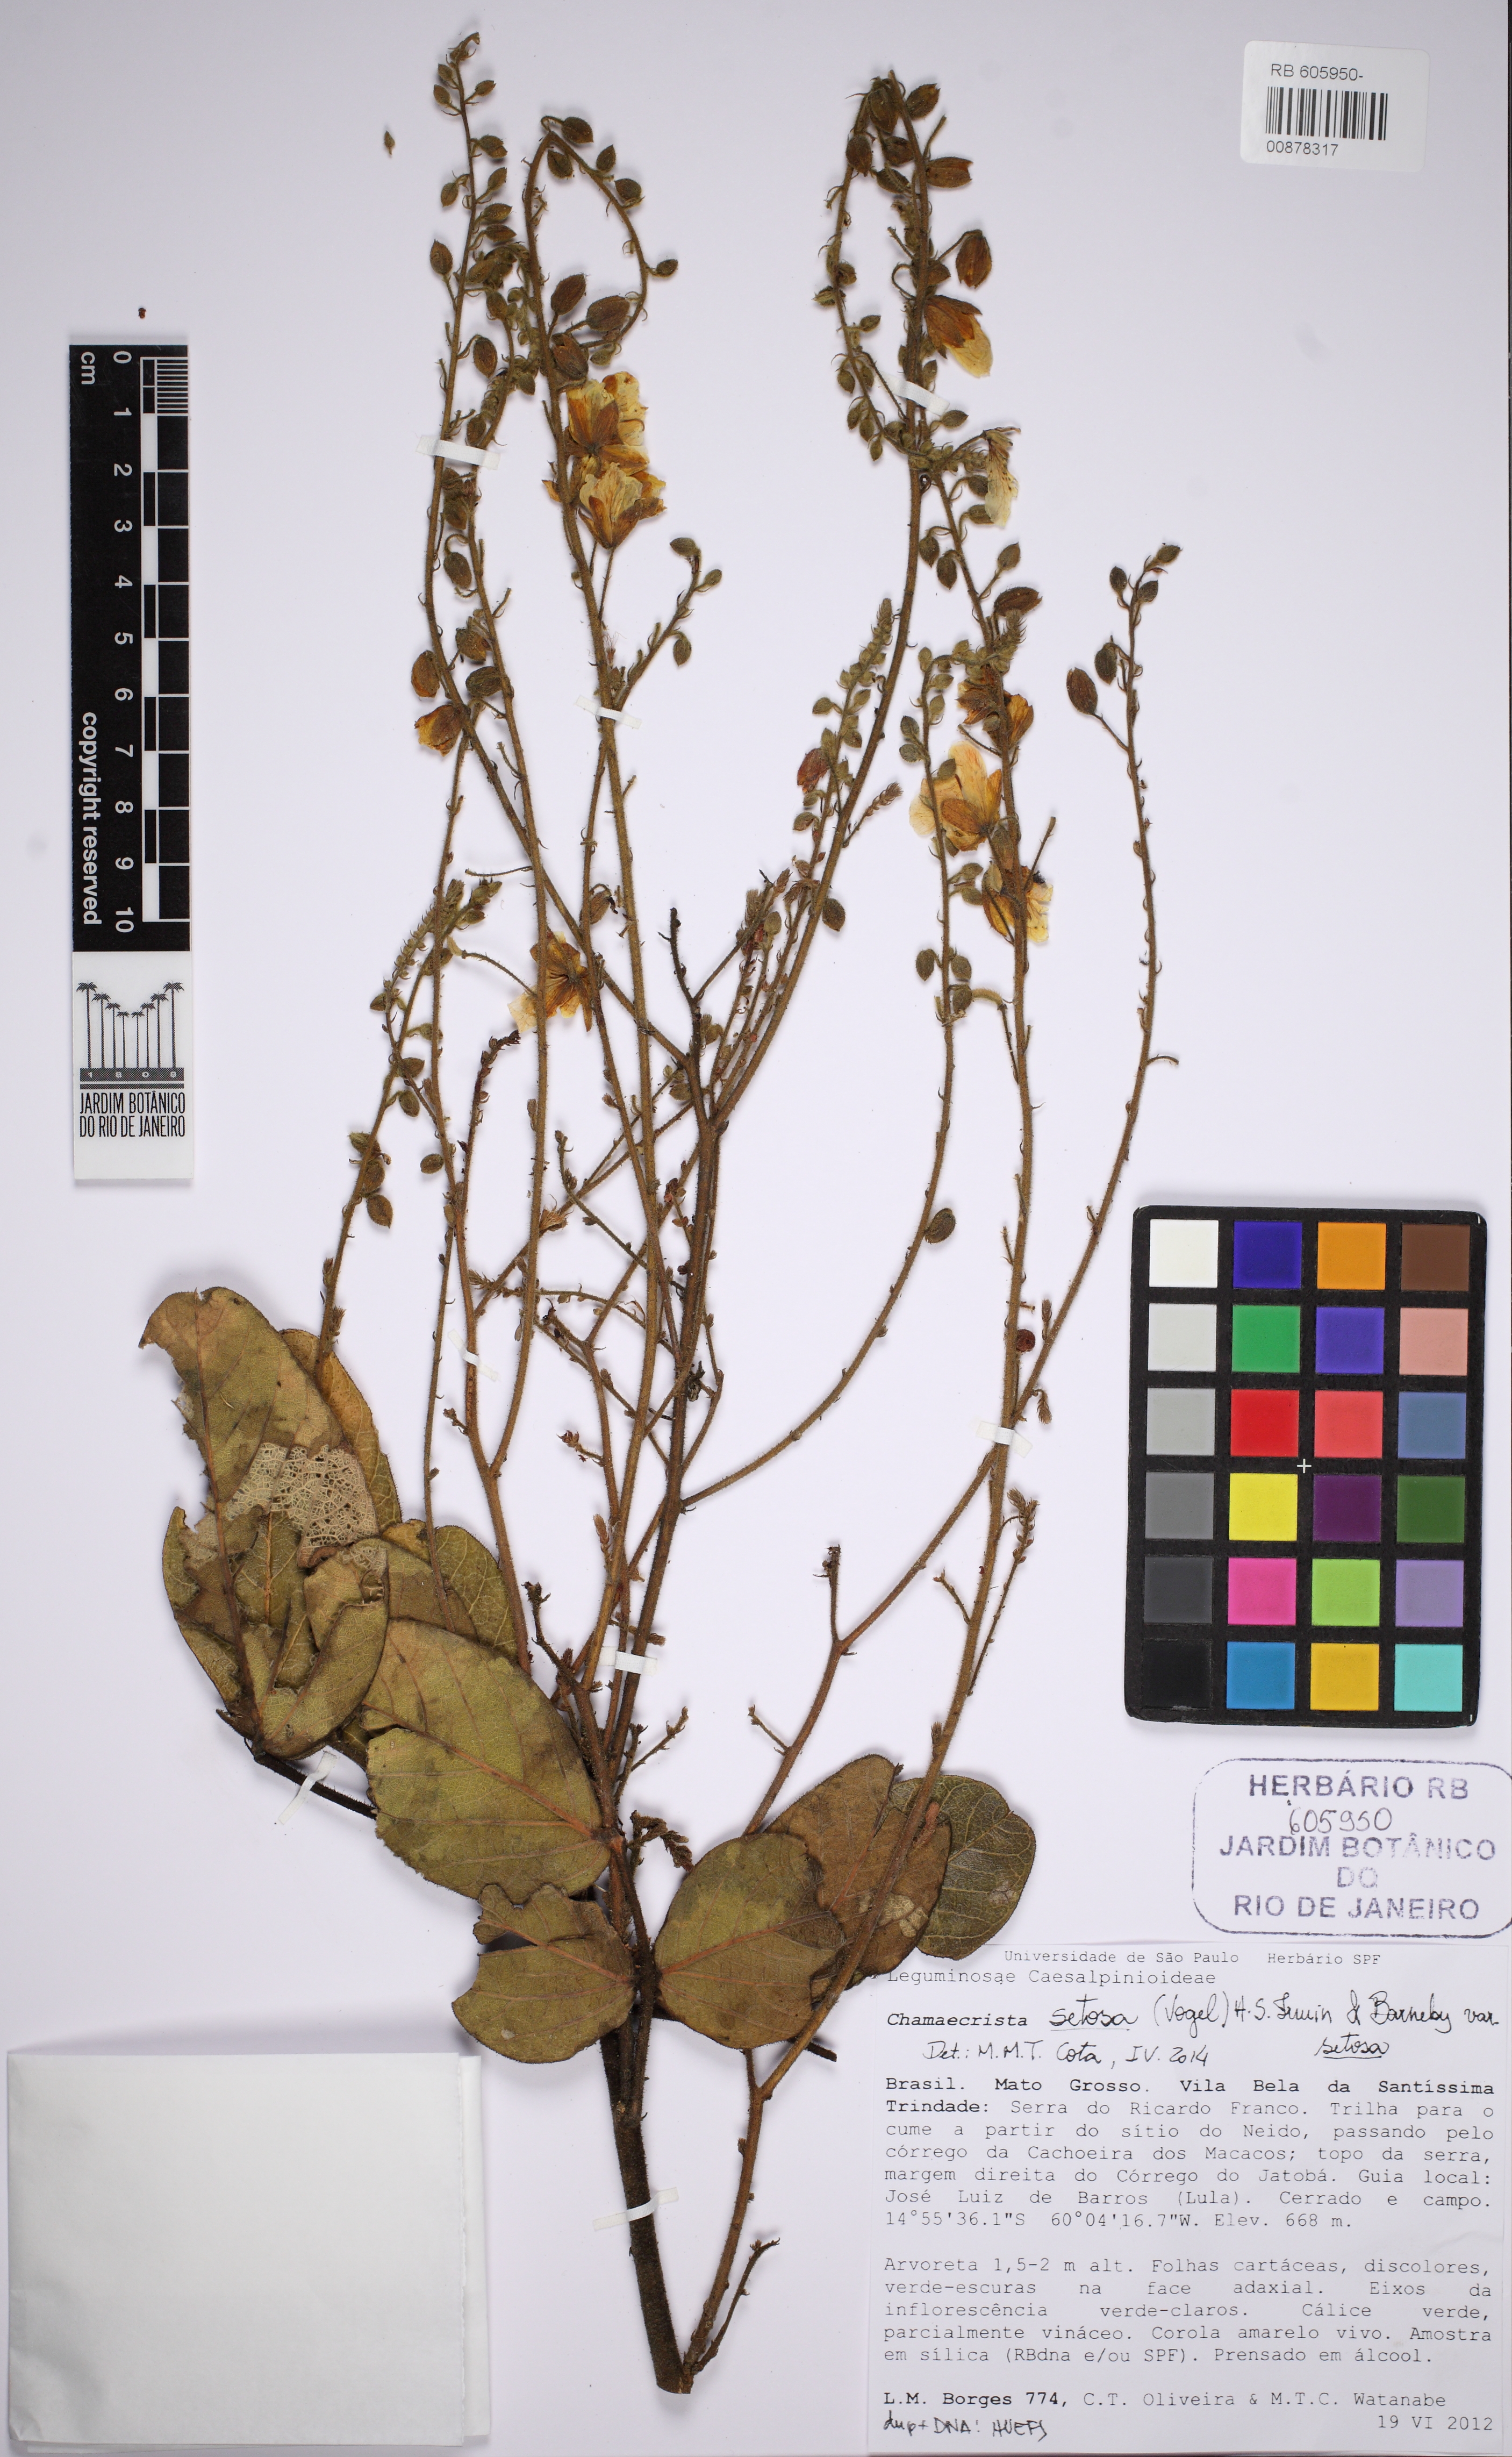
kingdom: Plantae
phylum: Tracheophyta
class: Magnoliopsida
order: Fabales
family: Fabaceae
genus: Chamaecrista
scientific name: Chamaecrista setosa
